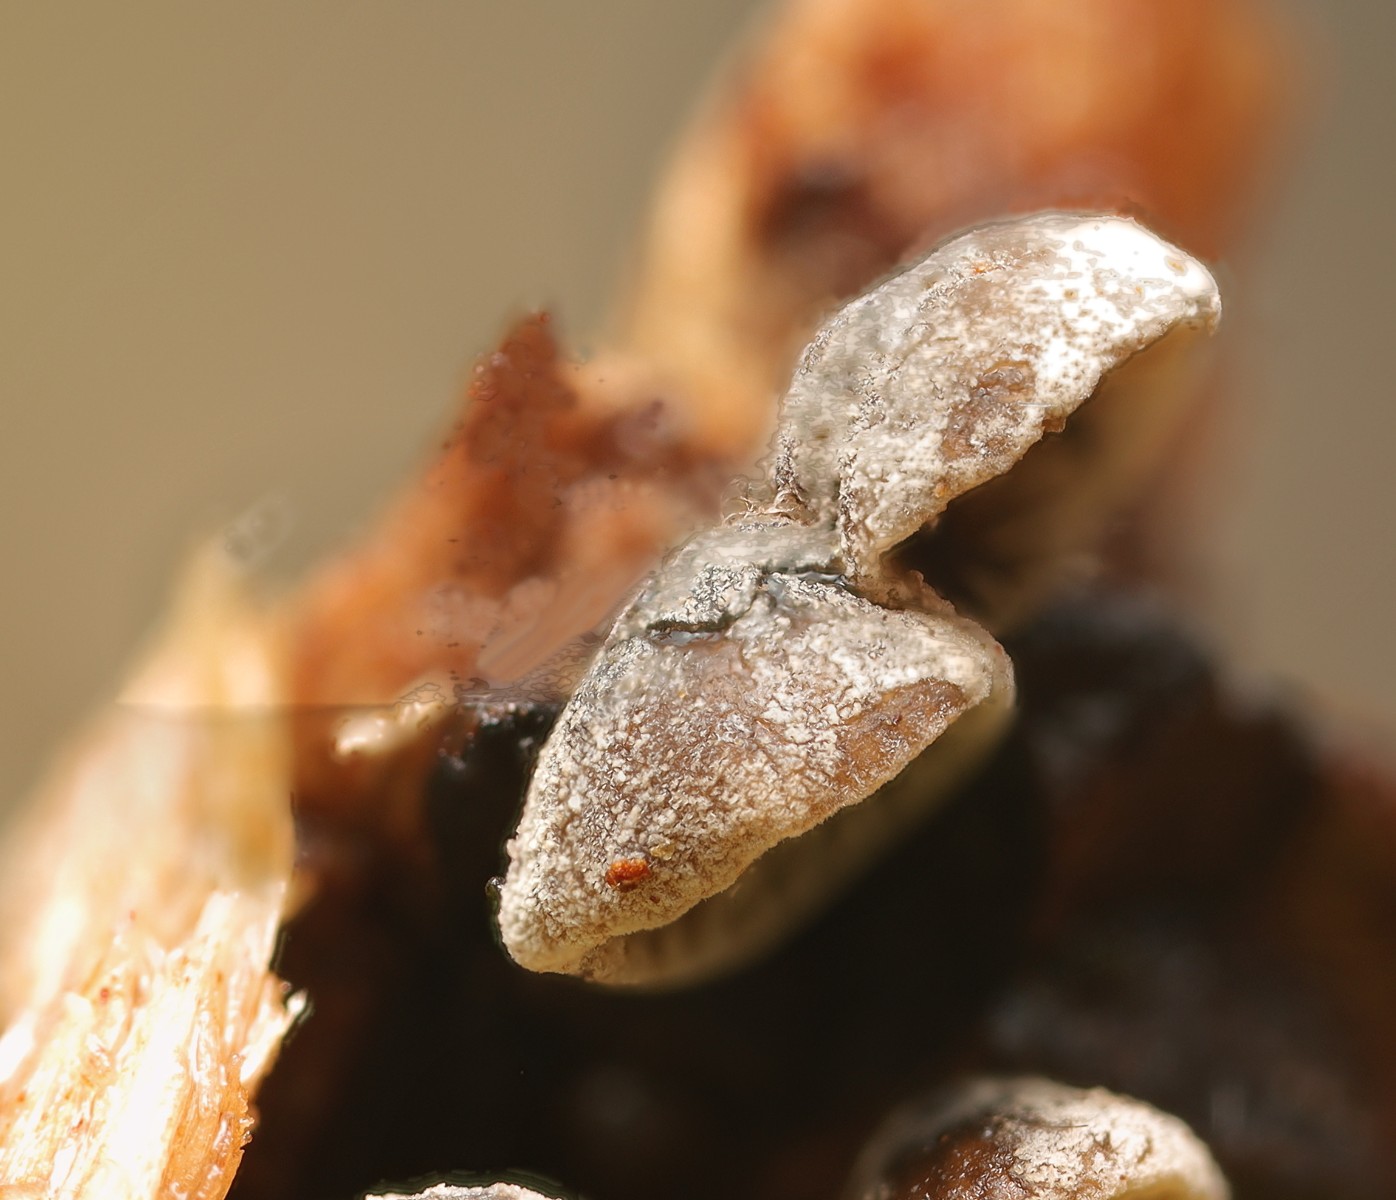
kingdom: Fungi
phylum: Basidiomycota
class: Agaricomycetes
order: Agaricales
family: Pleurotaceae
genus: Resupinatus
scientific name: Resupinatus applicatus
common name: lysfiltet barkhat
